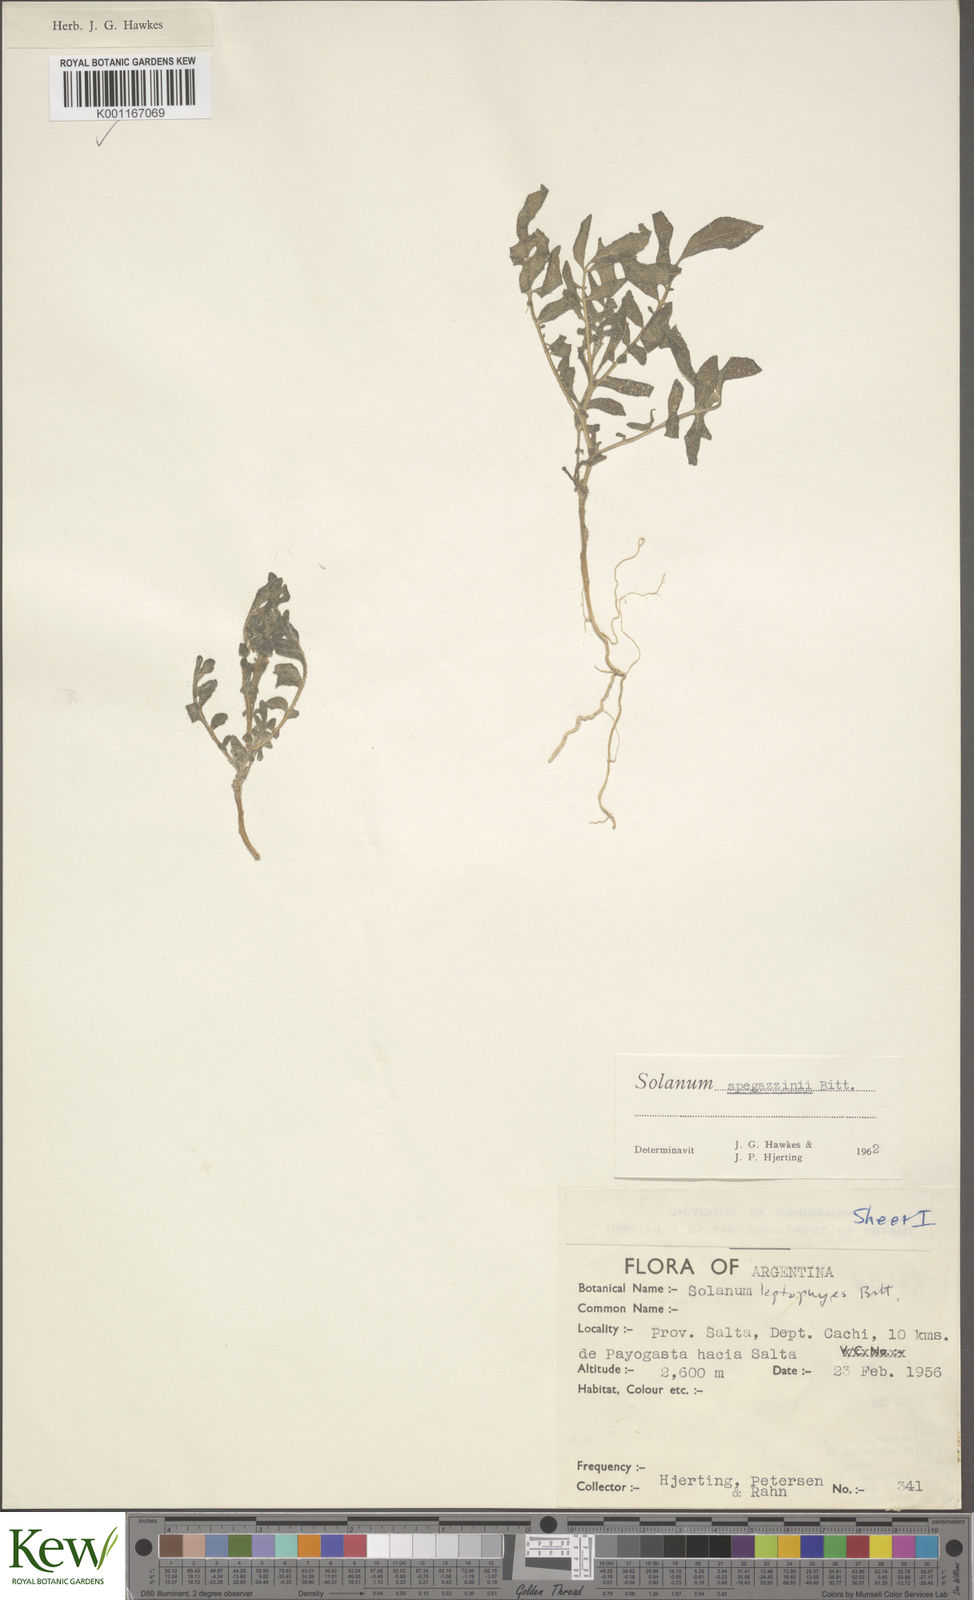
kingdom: Plantae
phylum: Tracheophyta
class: Magnoliopsida
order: Solanales
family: Solanaceae
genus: Solanum
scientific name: Solanum brevicaule
